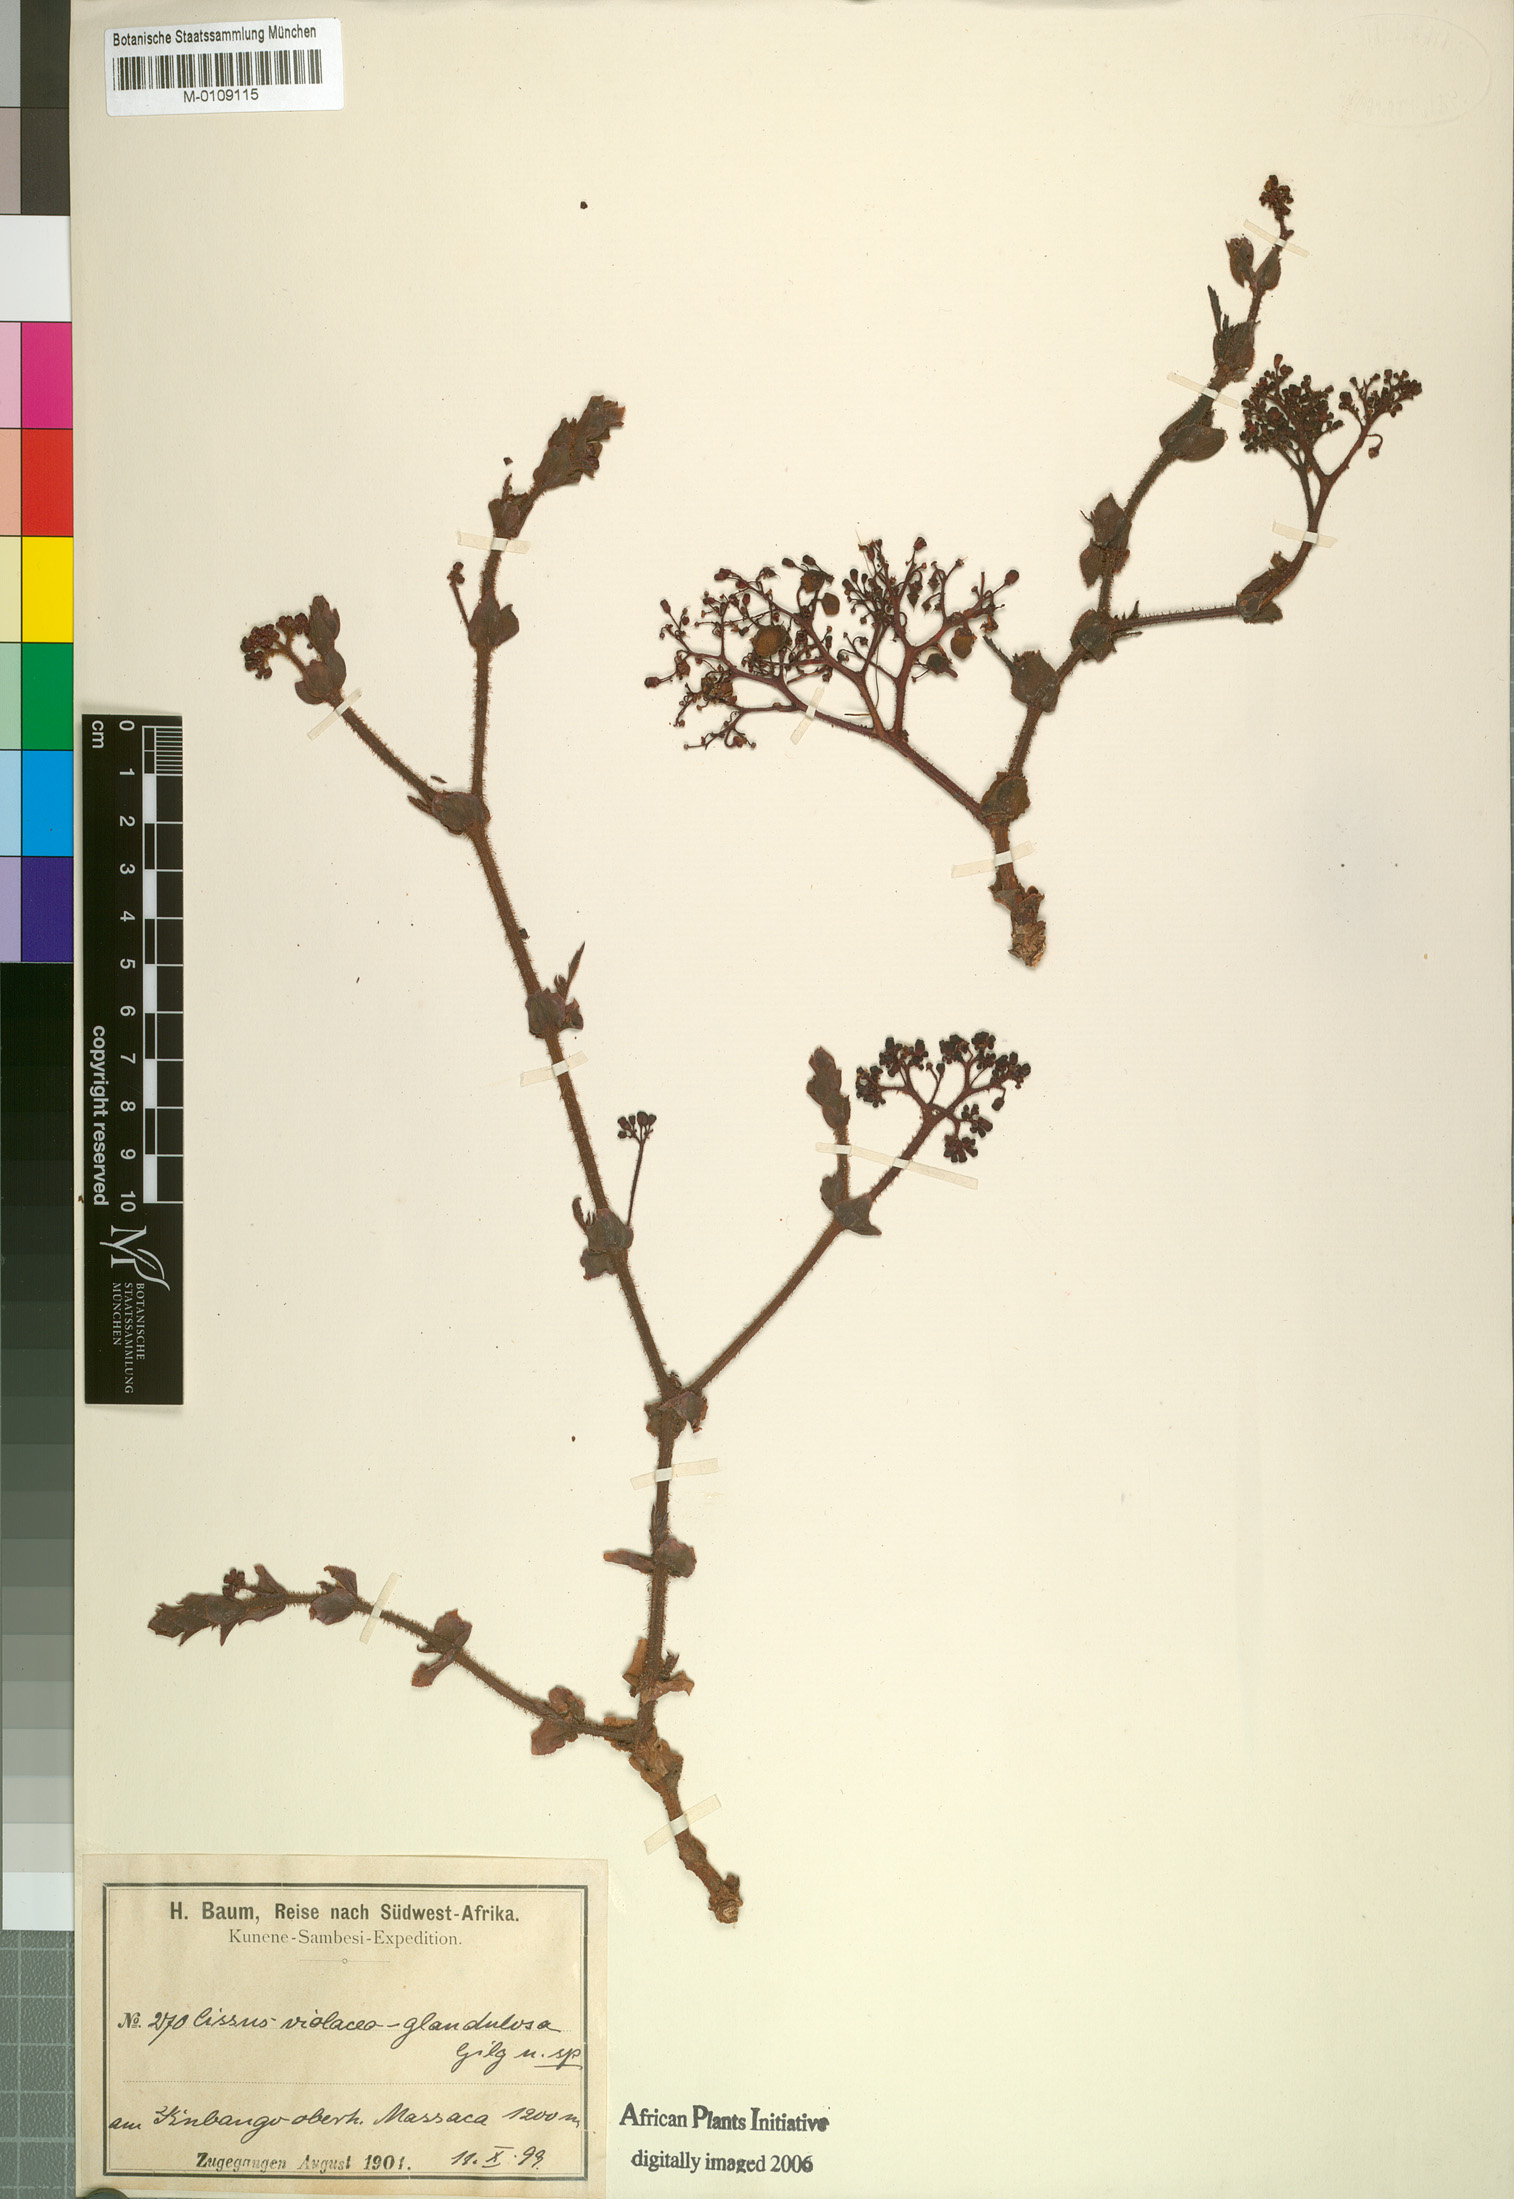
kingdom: Plantae
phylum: Tracheophyta
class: Magnoliopsida
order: Vitales
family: Vitaceae
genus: Cyphostemma
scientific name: Cyphostemma violaceoglandulosum
